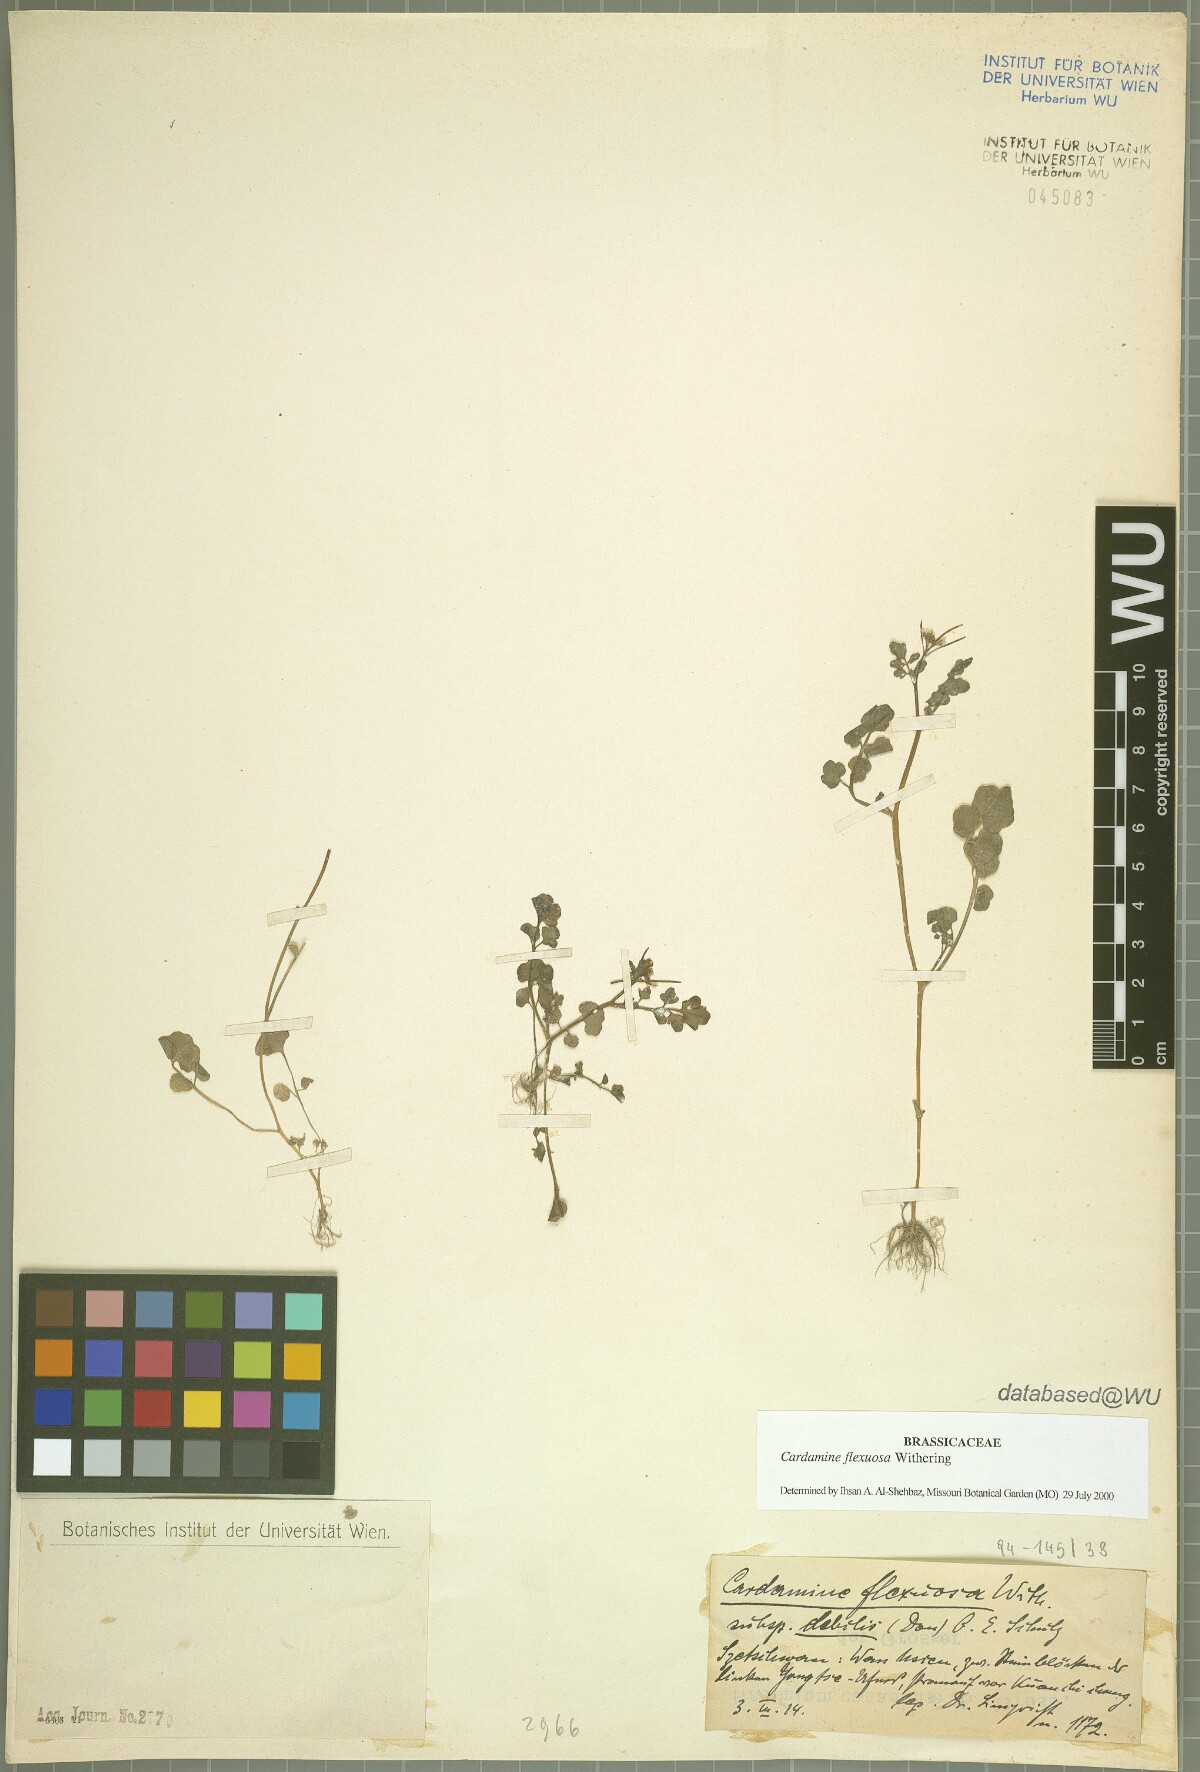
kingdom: Plantae
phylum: Tracheophyta
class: Magnoliopsida
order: Brassicales
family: Brassicaceae
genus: Cardamine
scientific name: Cardamine flexuosa
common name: Woodland bittercress
